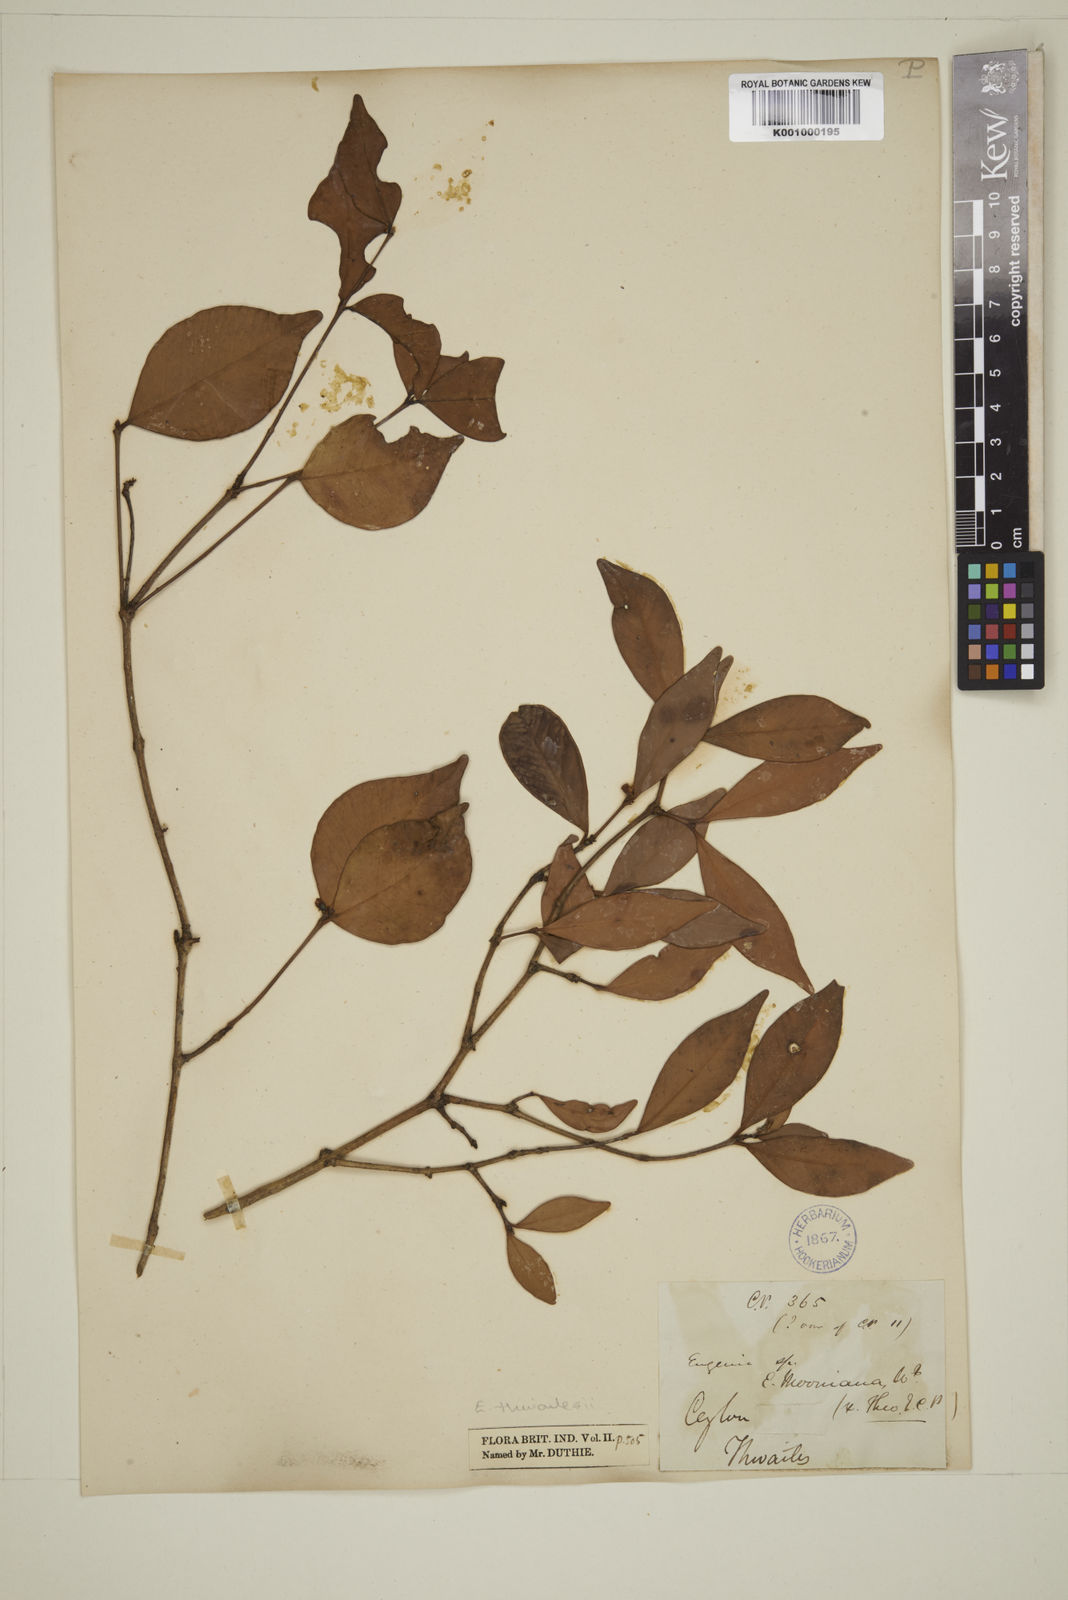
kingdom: Plantae
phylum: Tracheophyta
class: Magnoliopsida
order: Myrtales
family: Myrtaceae
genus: Eugenia
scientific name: Eugenia thwaitesii
